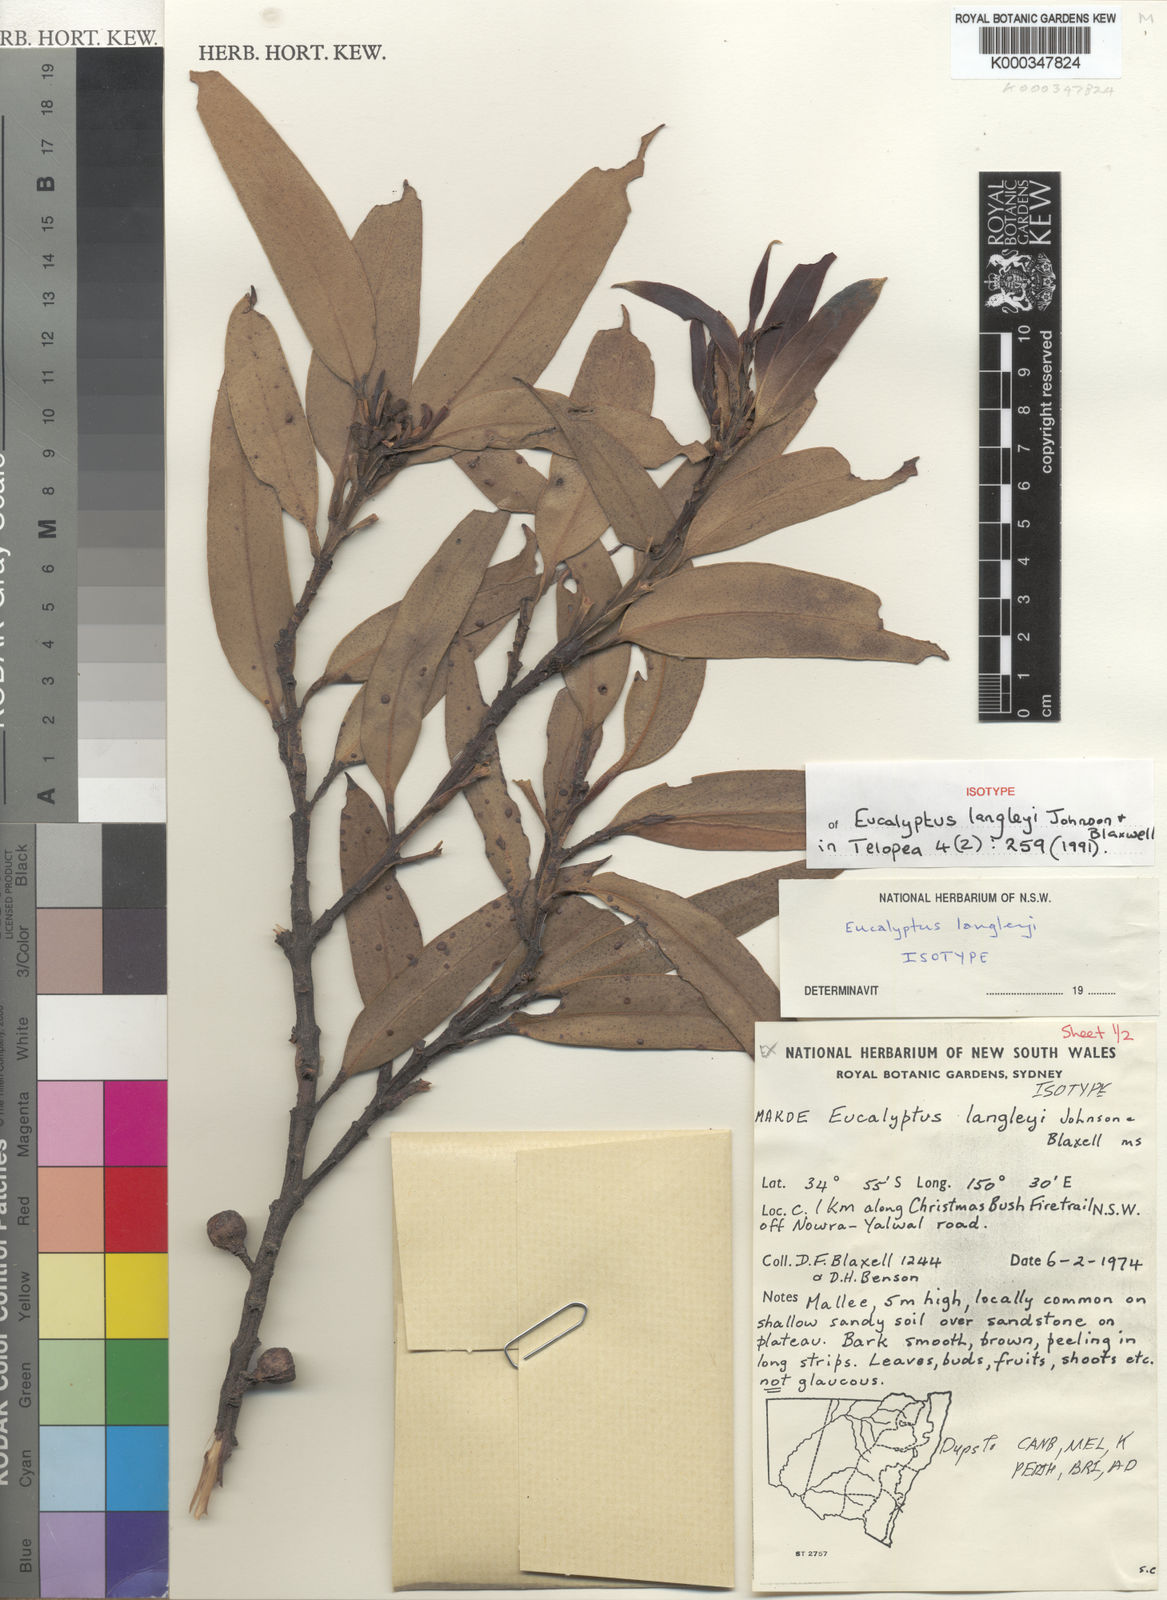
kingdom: Plantae
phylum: Tracheophyta
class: Magnoliopsida
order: Myrtales
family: Myrtaceae
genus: Eucalyptus
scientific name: Eucalyptus langleyi
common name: Albatross mallee
